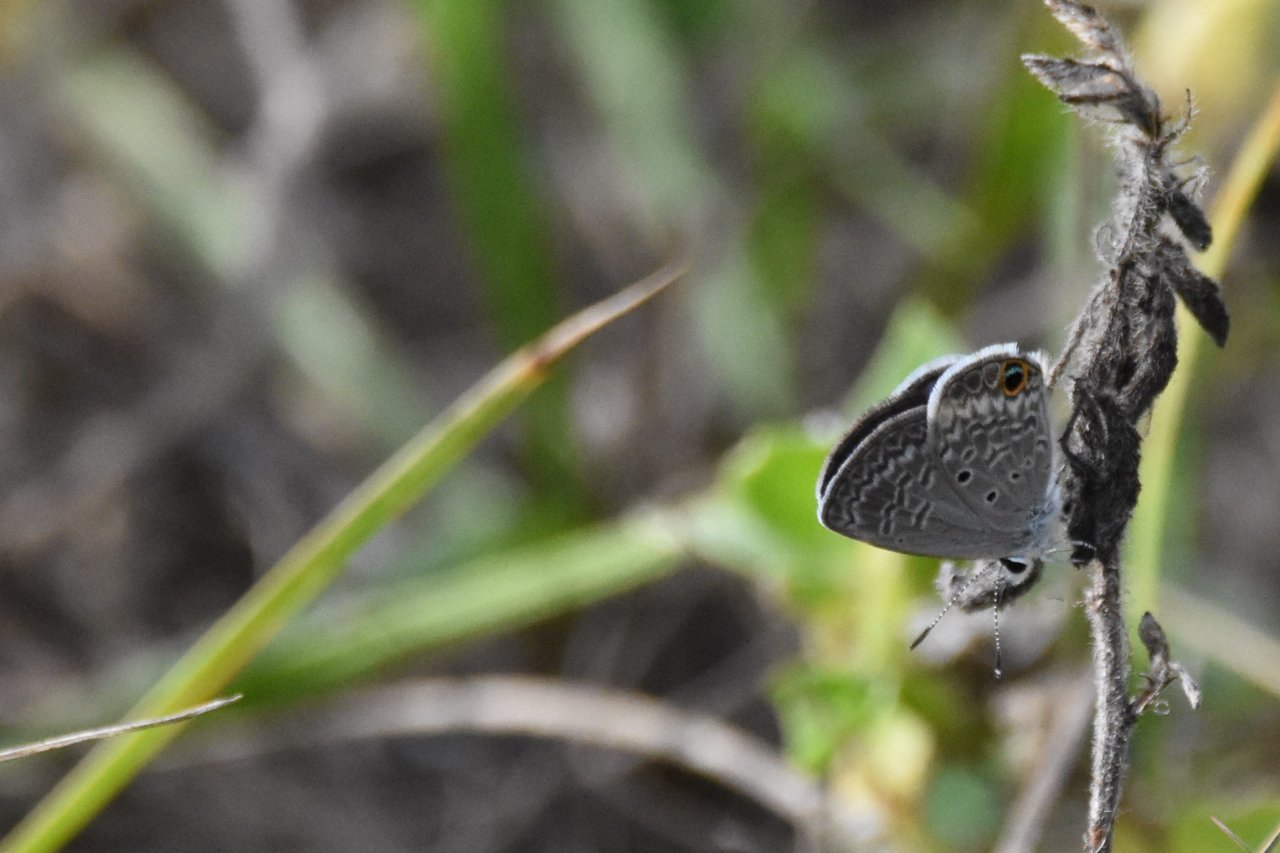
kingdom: Animalia
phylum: Arthropoda
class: Insecta
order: Lepidoptera
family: Lycaenidae
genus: Hemiargus
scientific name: Hemiargus ceraunus
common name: Ceraunus Blue
